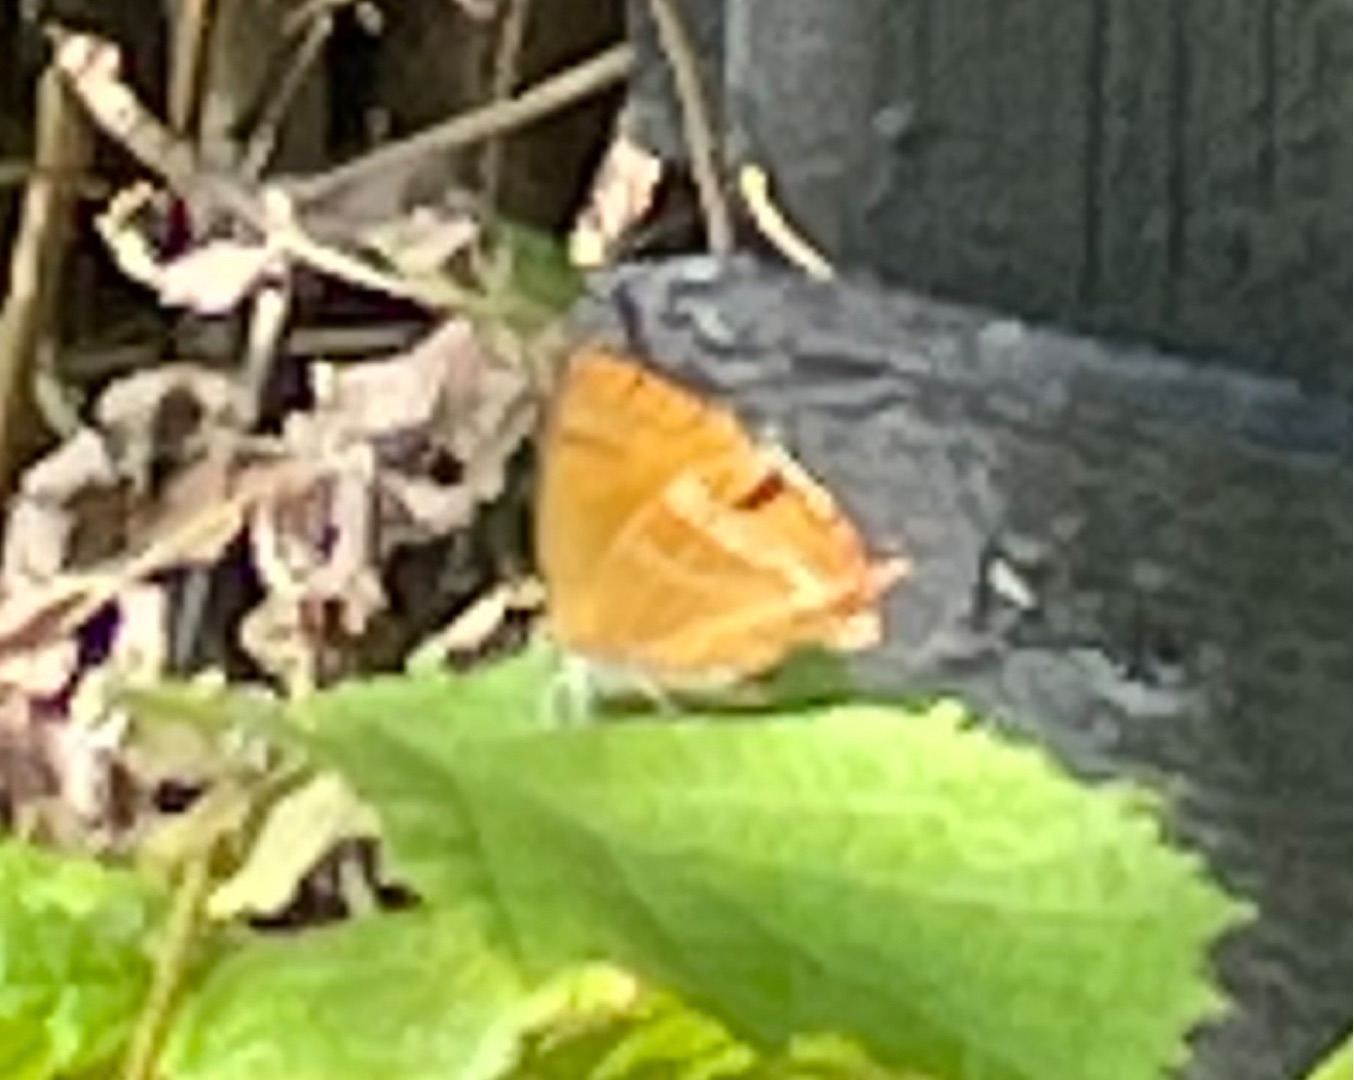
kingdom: Animalia
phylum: Arthropoda
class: Insecta
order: Lepidoptera
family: Lycaenidae
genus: Thecla
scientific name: Thecla betulae
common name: Guldhale
